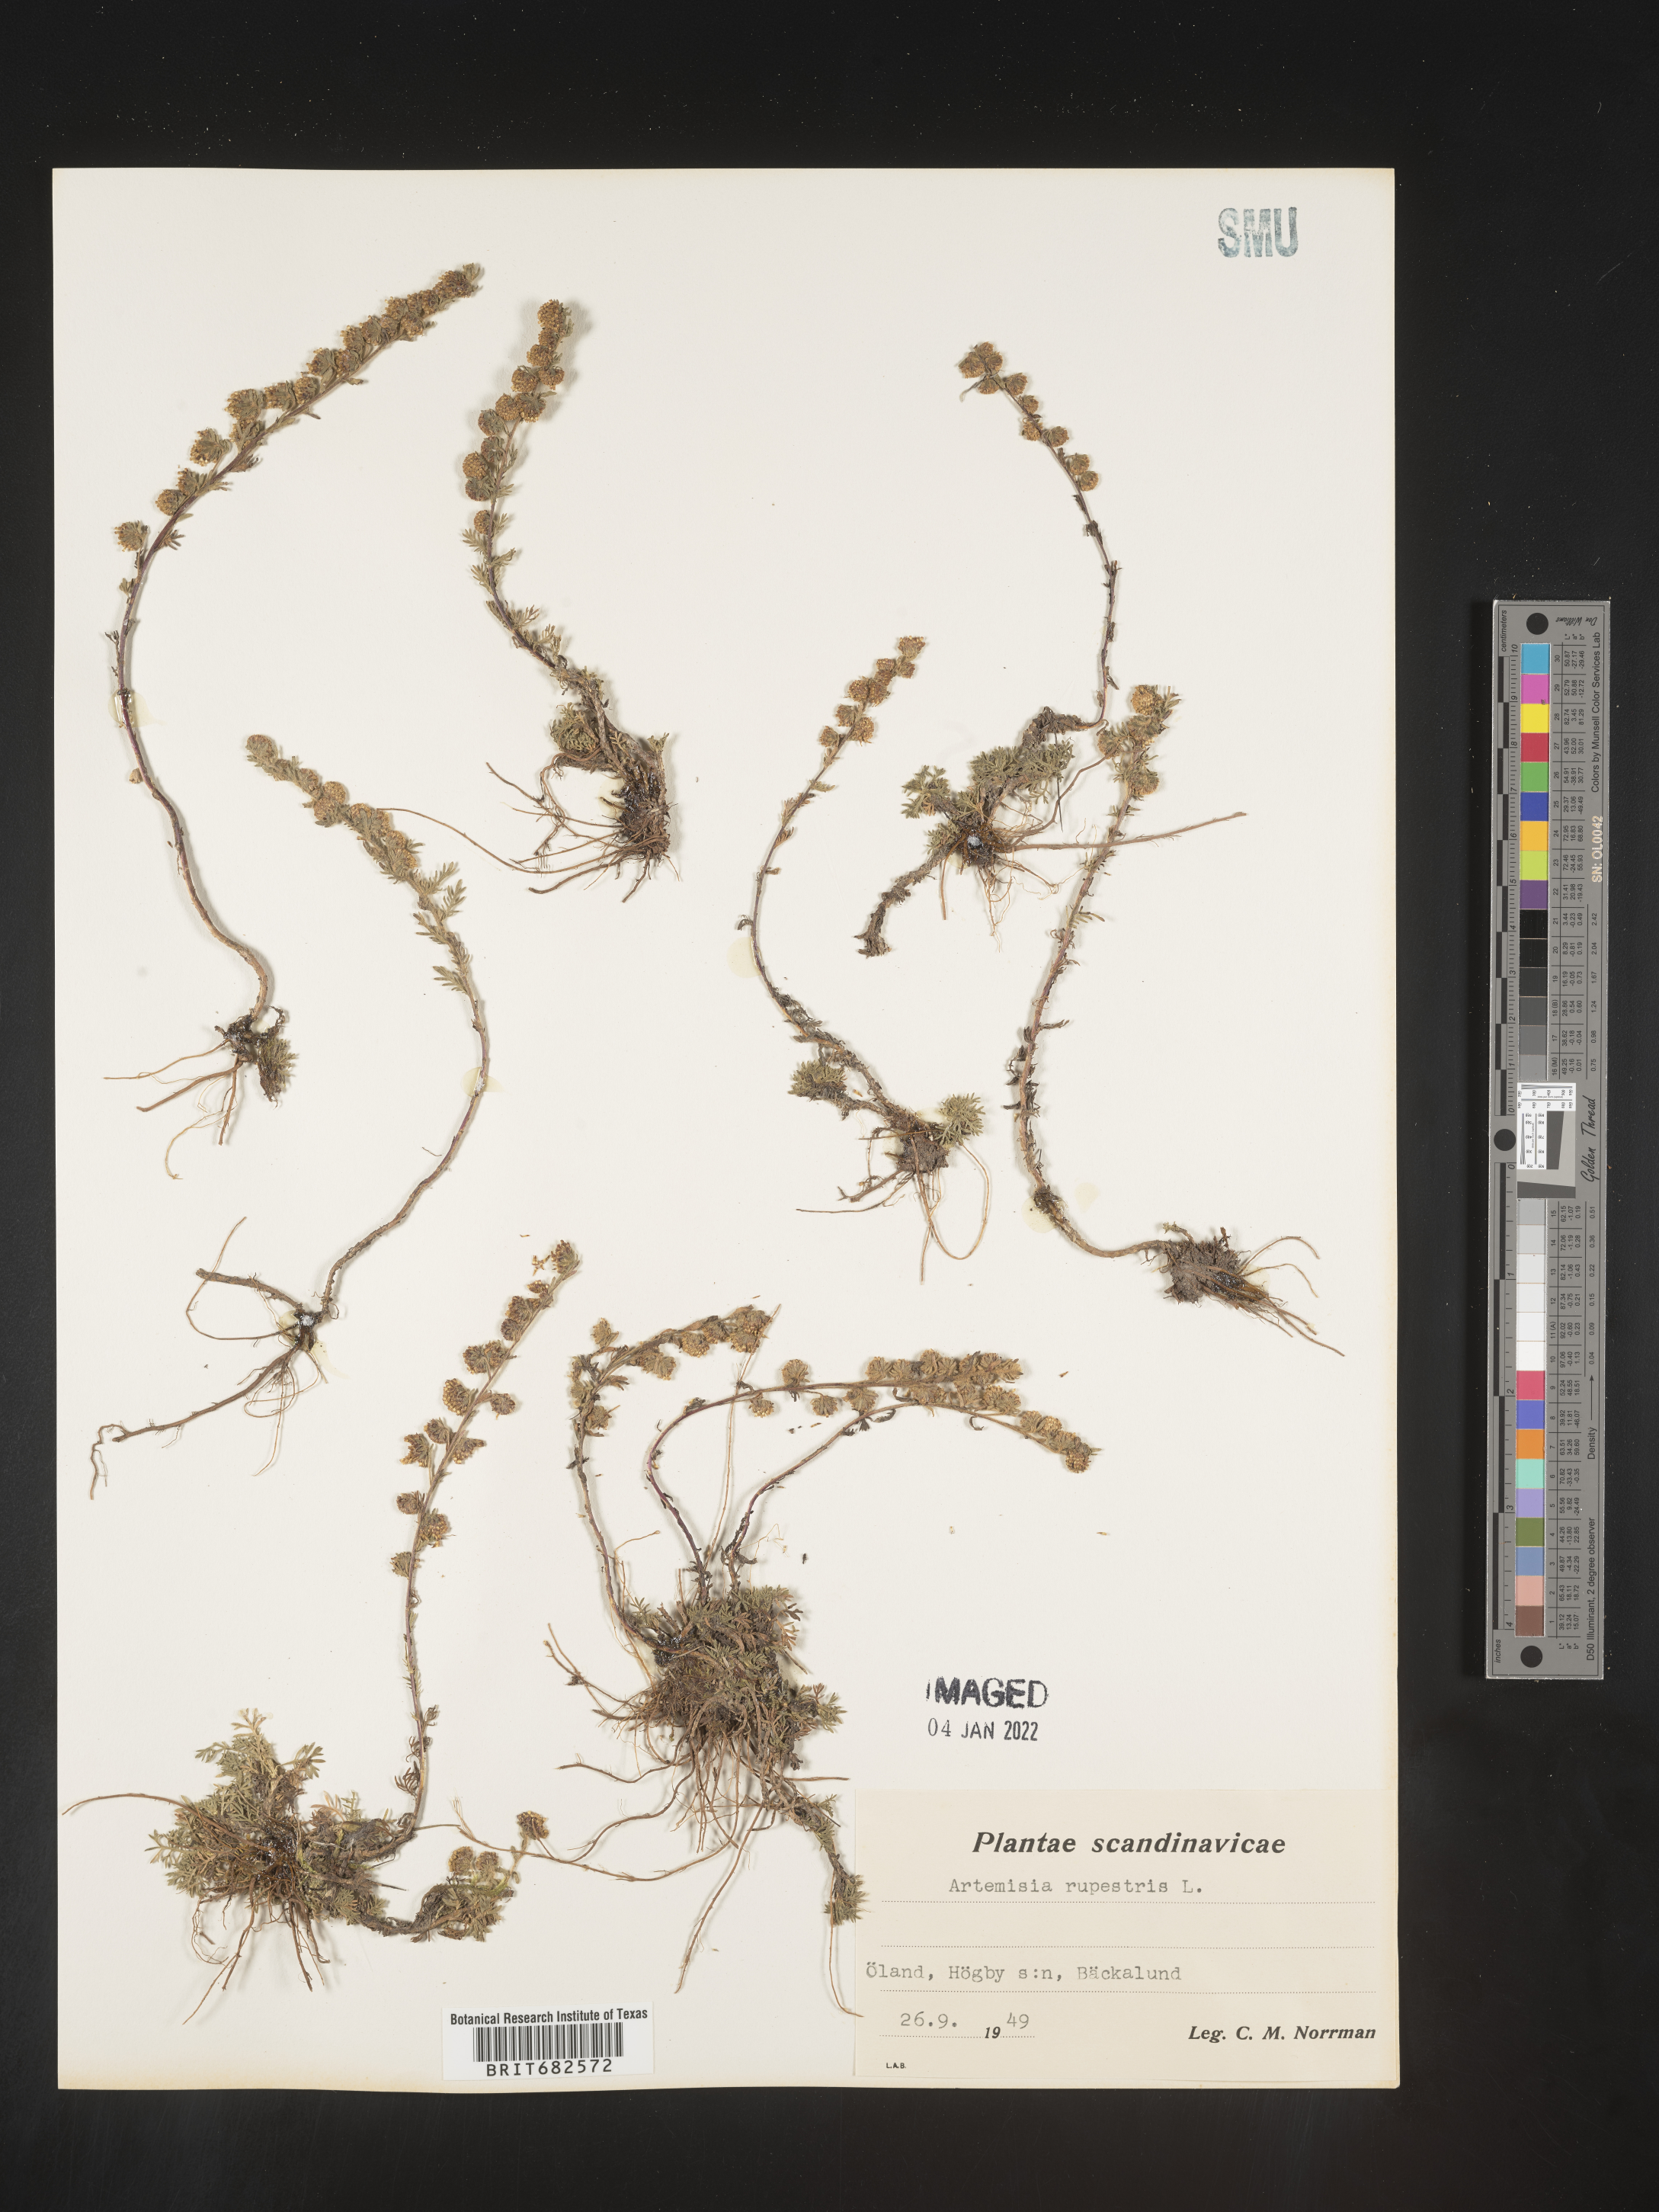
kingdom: Plantae
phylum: Tracheophyta
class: Magnoliopsida
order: Asterales
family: Asteraceae
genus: Artemisia
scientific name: Artemisia
